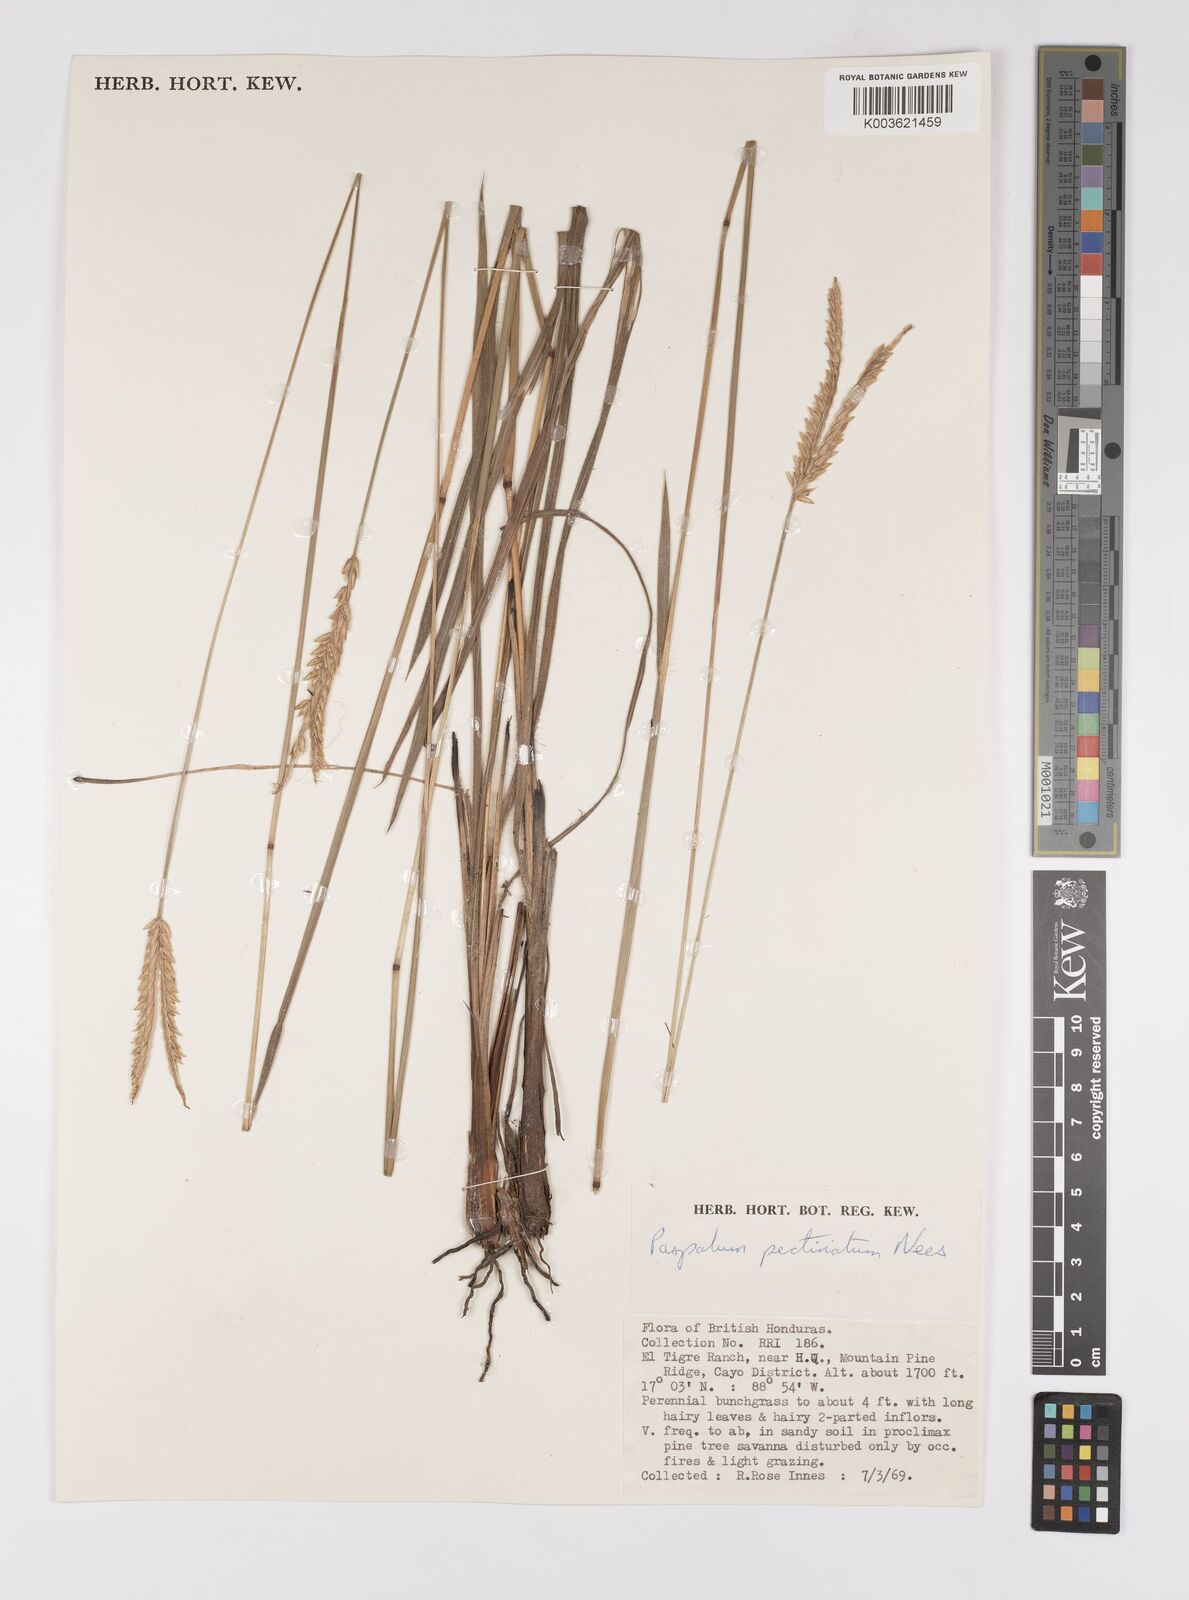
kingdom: Plantae
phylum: Tracheophyta
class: Liliopsida
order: Poales
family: Poaceae
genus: Paspalum
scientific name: Paspalum pectinatum
